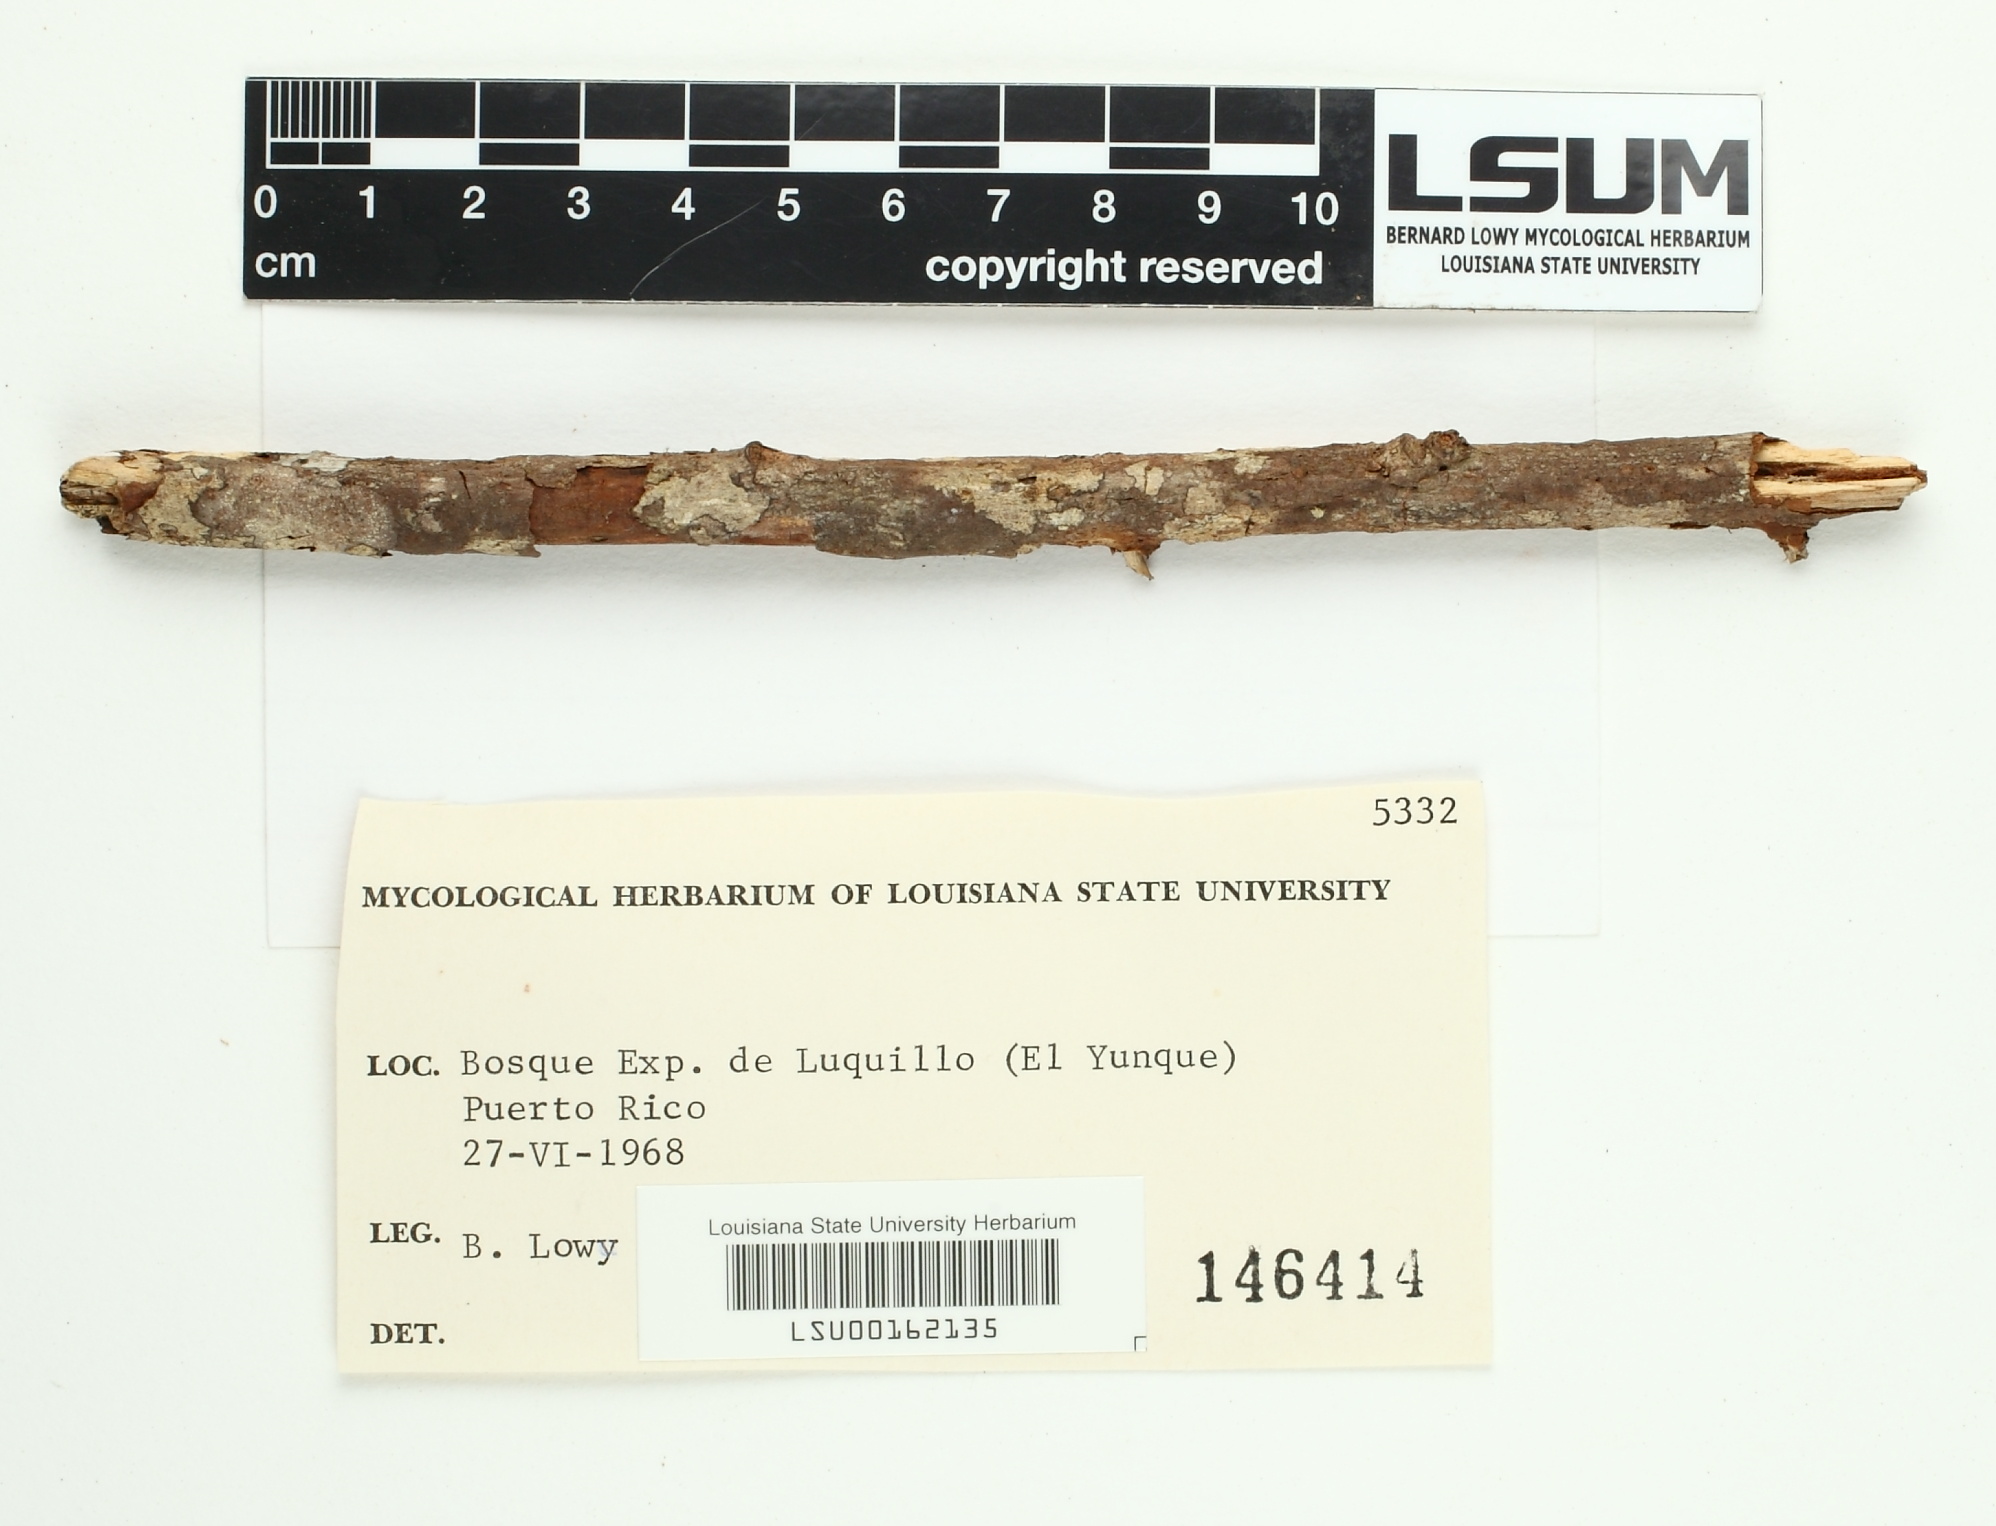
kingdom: Fungi
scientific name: Fungi
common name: Fungi
